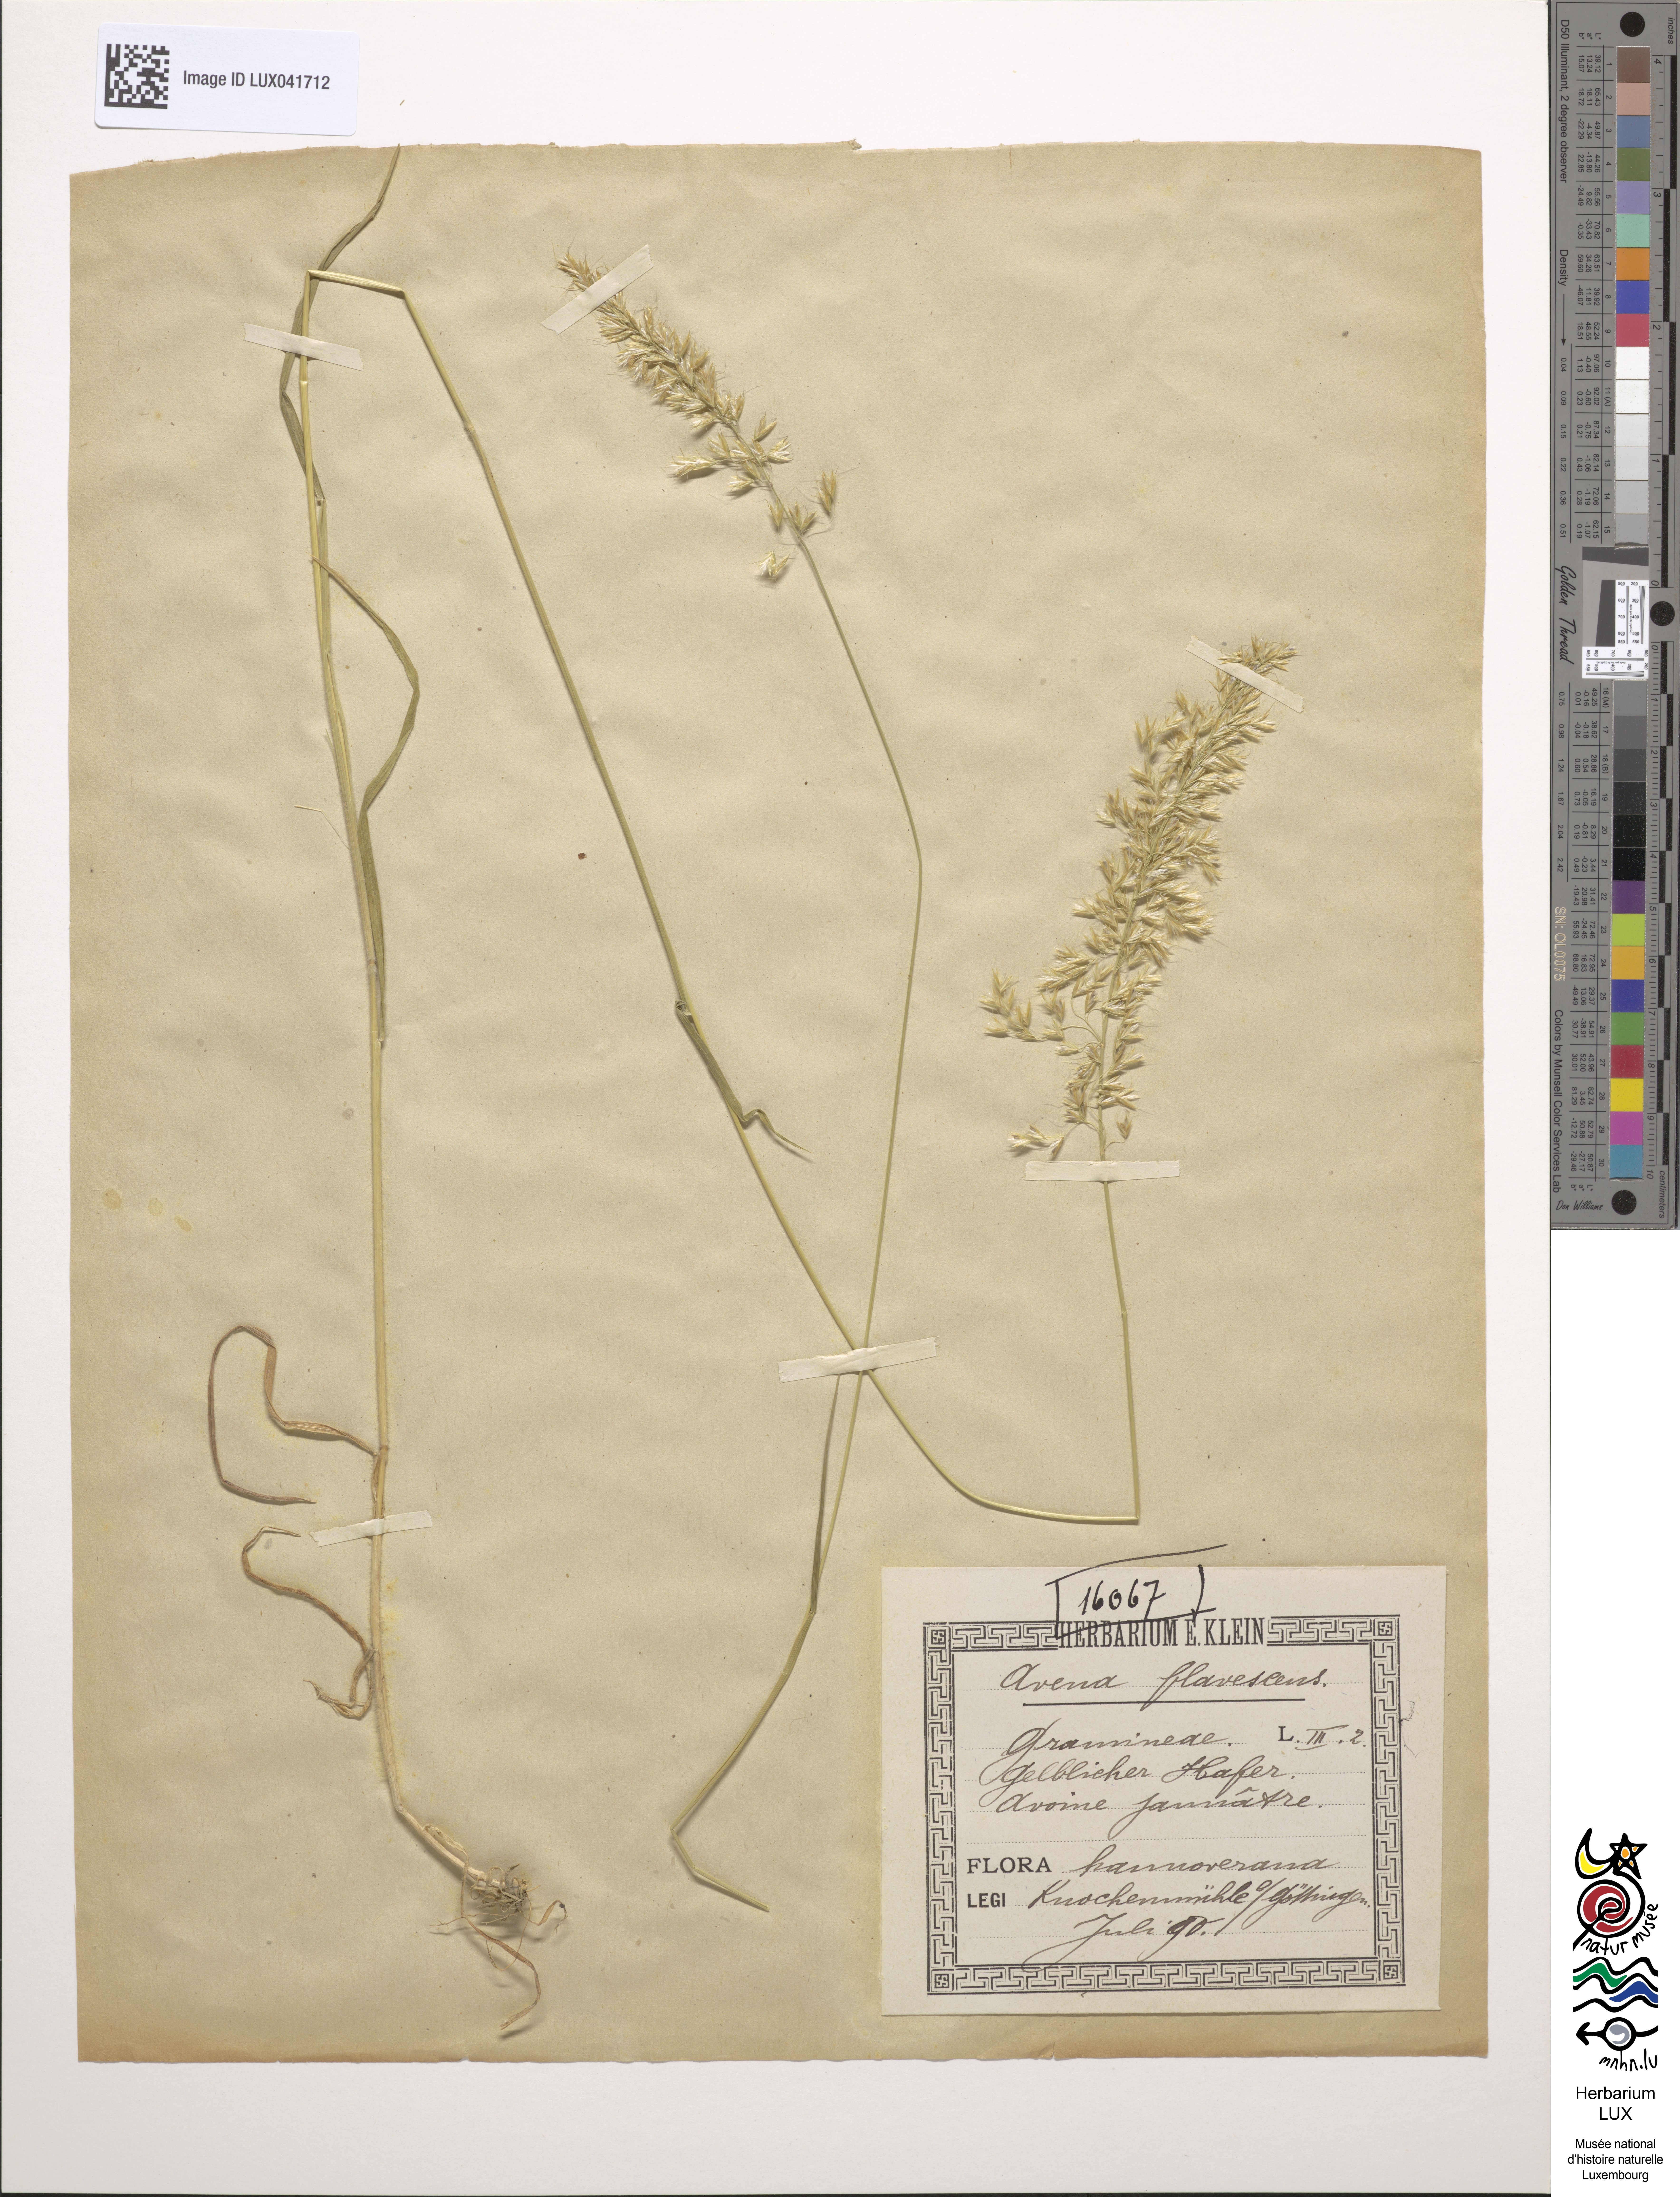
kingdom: Plantae
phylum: Tracheophyta
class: Liliopsida
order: Poales
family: Poaceae
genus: Trisetum
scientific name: Trisetum flavescens
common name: Yellow oat-grass
